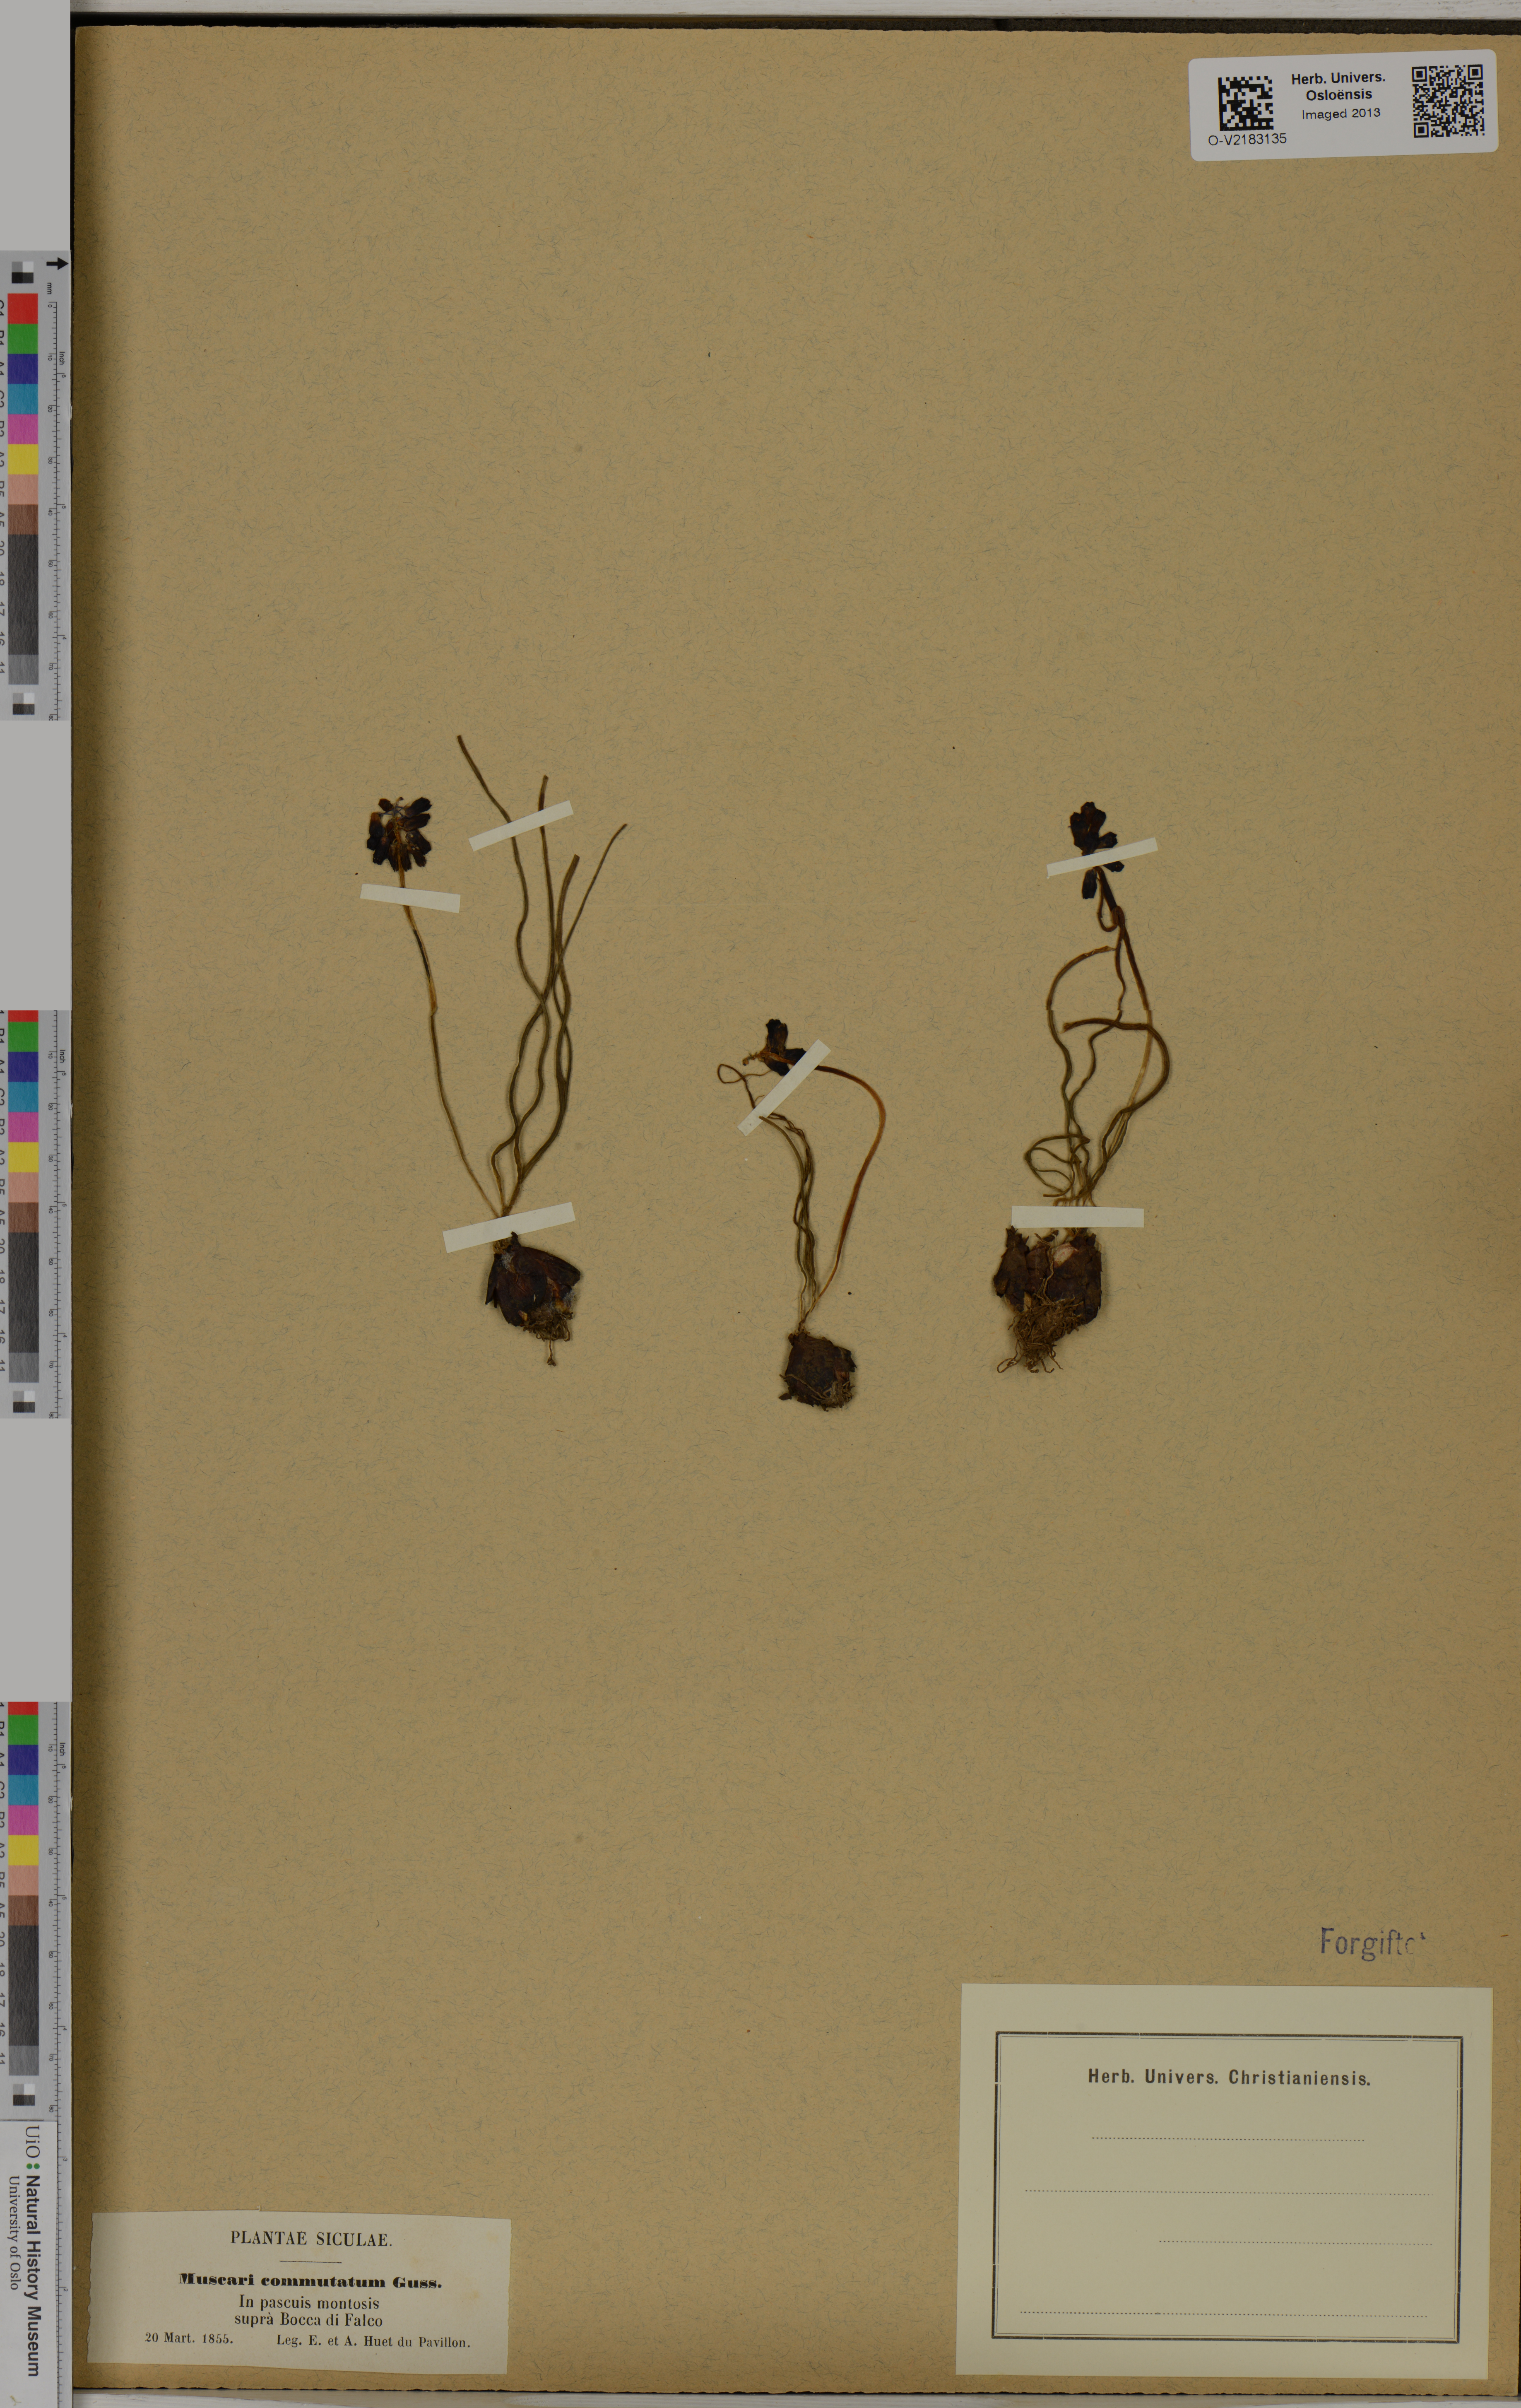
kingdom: Plantae
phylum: Tracheophyta
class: Liliopsida
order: Asparagales
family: Asparagaceae
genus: Muscari
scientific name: Muscari commutatum
